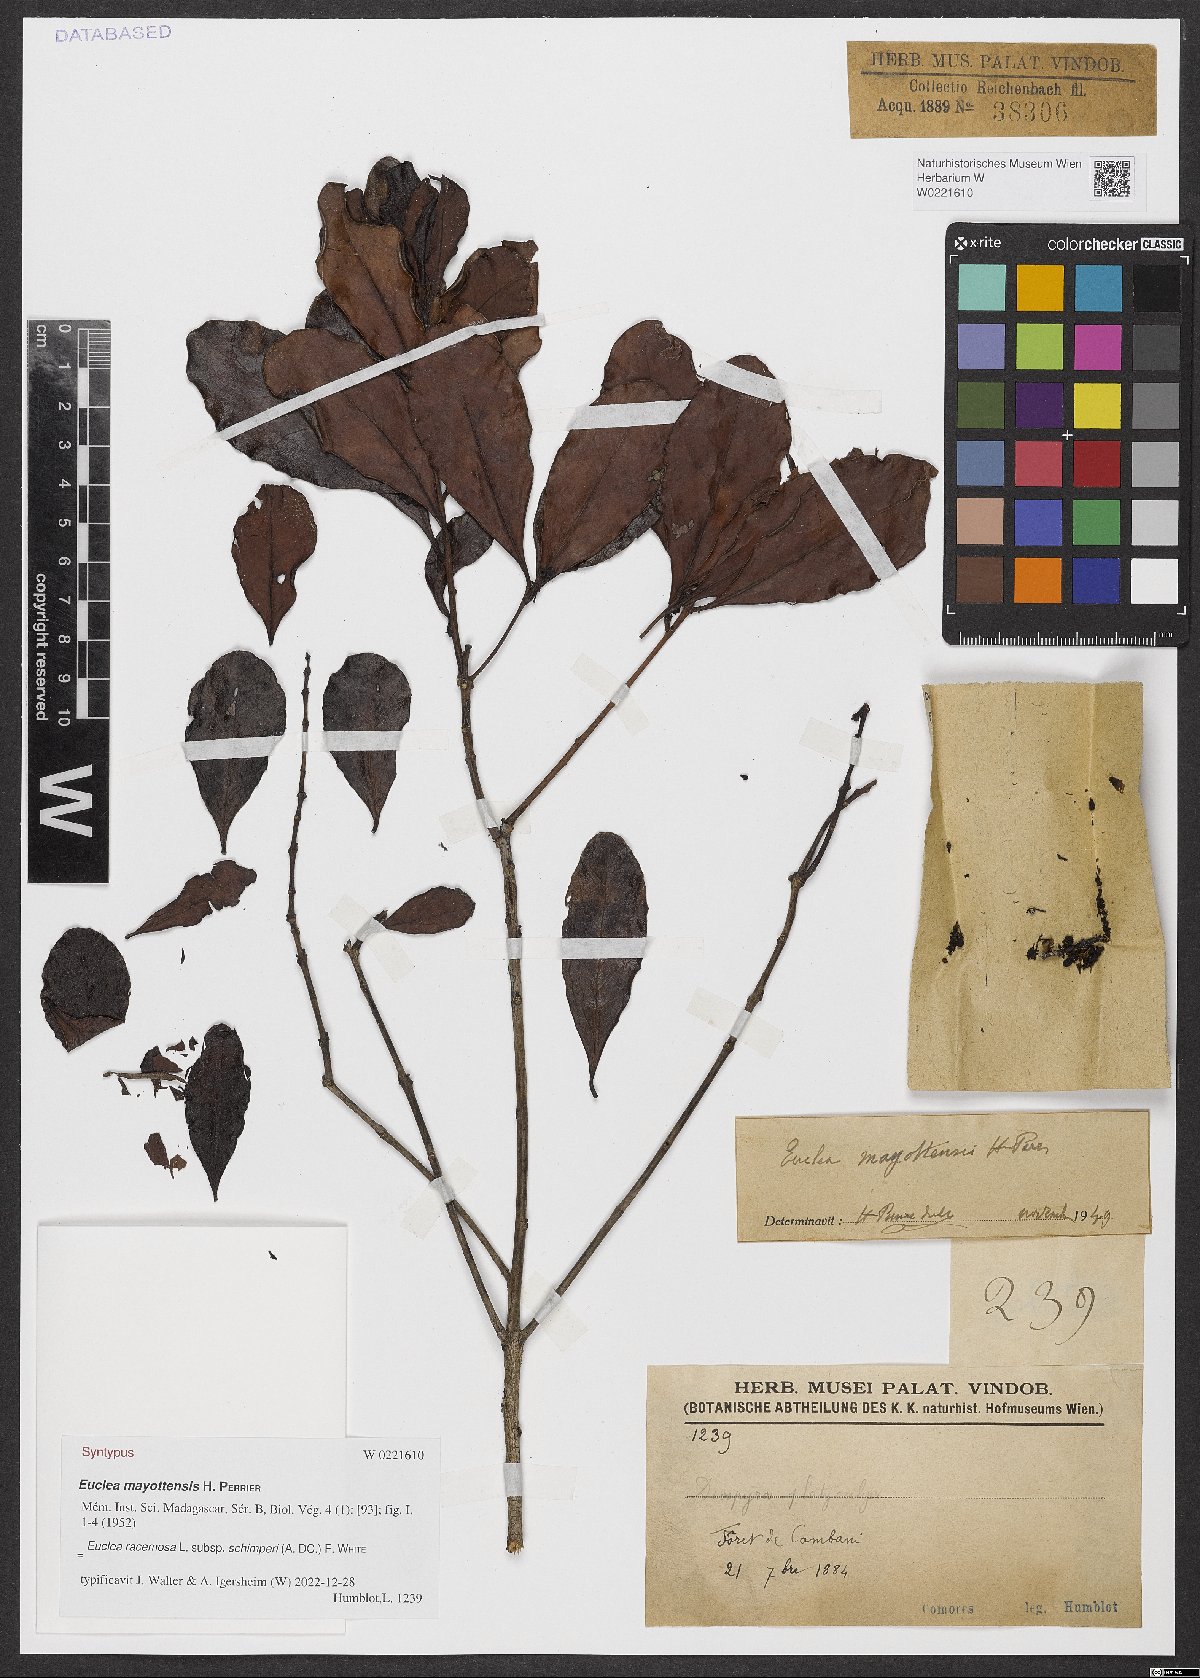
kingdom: Plantae
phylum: Tracheophyta
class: Magnoliopsida
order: Ericales
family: Ebenaceae
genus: Euclea
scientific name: Euclea racemosa
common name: Dune guarri
